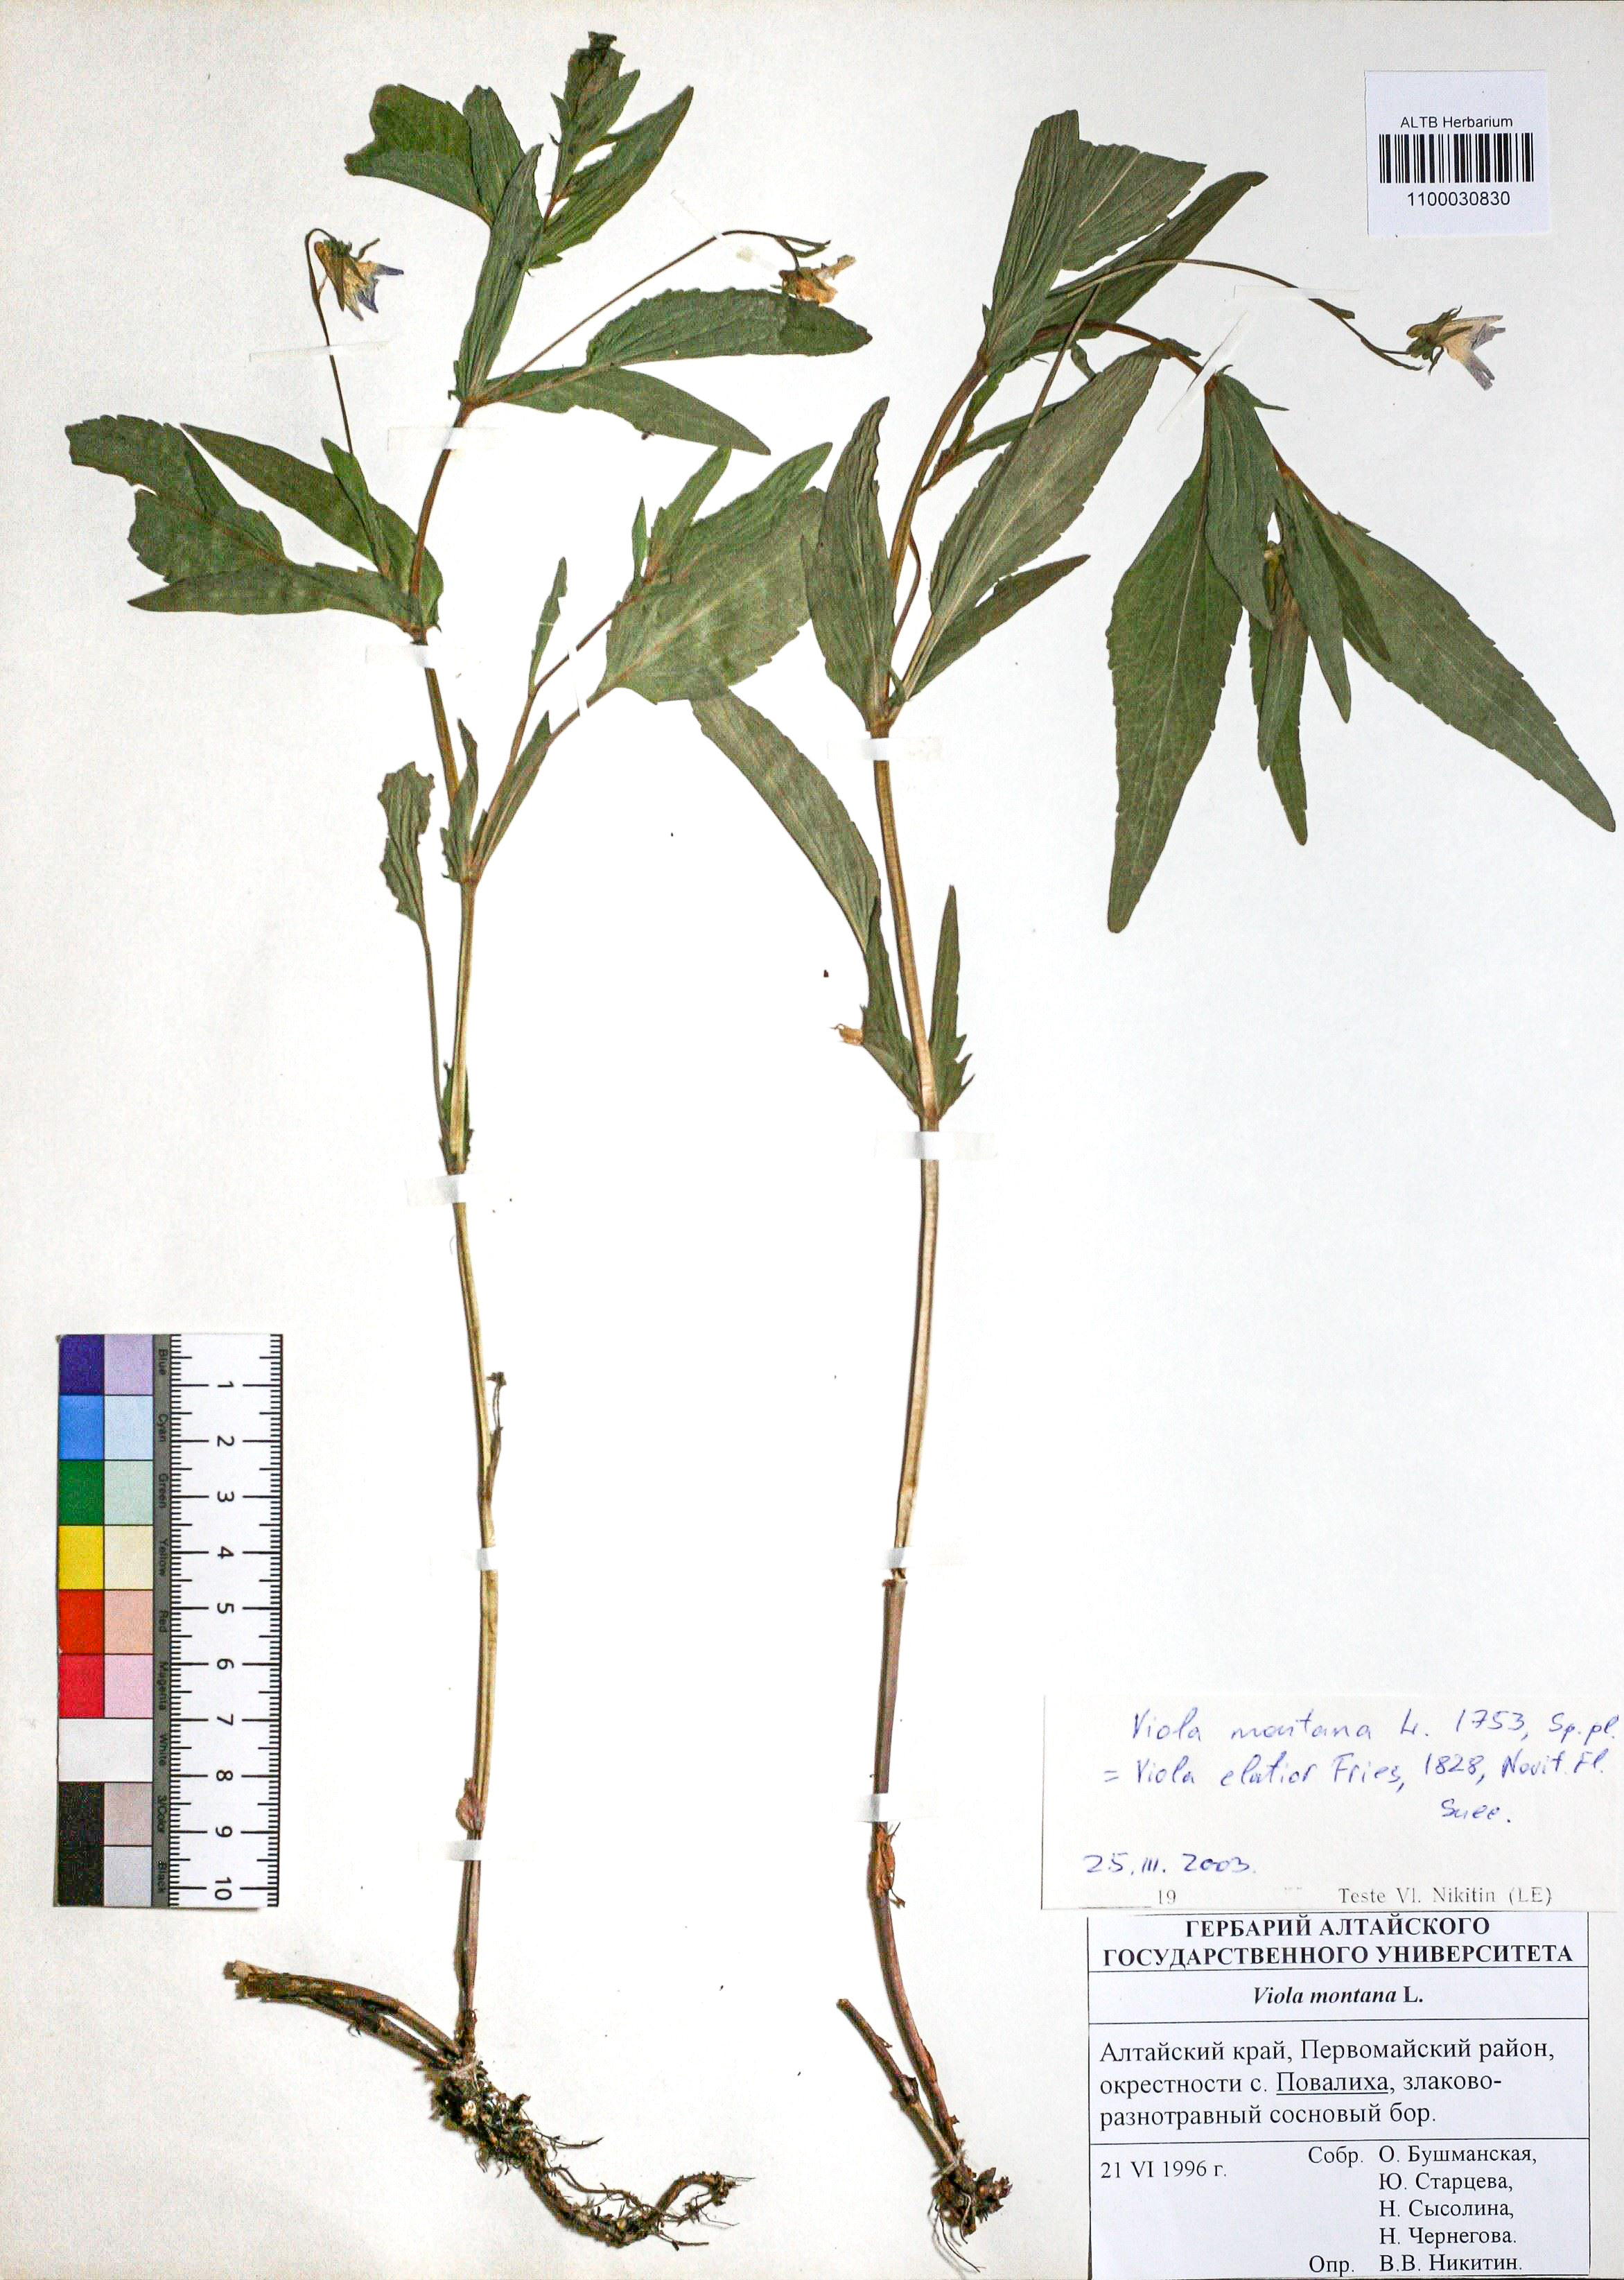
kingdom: Plantae
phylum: Tracheophyta
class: Magnoliopsida
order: Malpighiales
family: Violaceae
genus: Viola
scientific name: Viola ruppii
